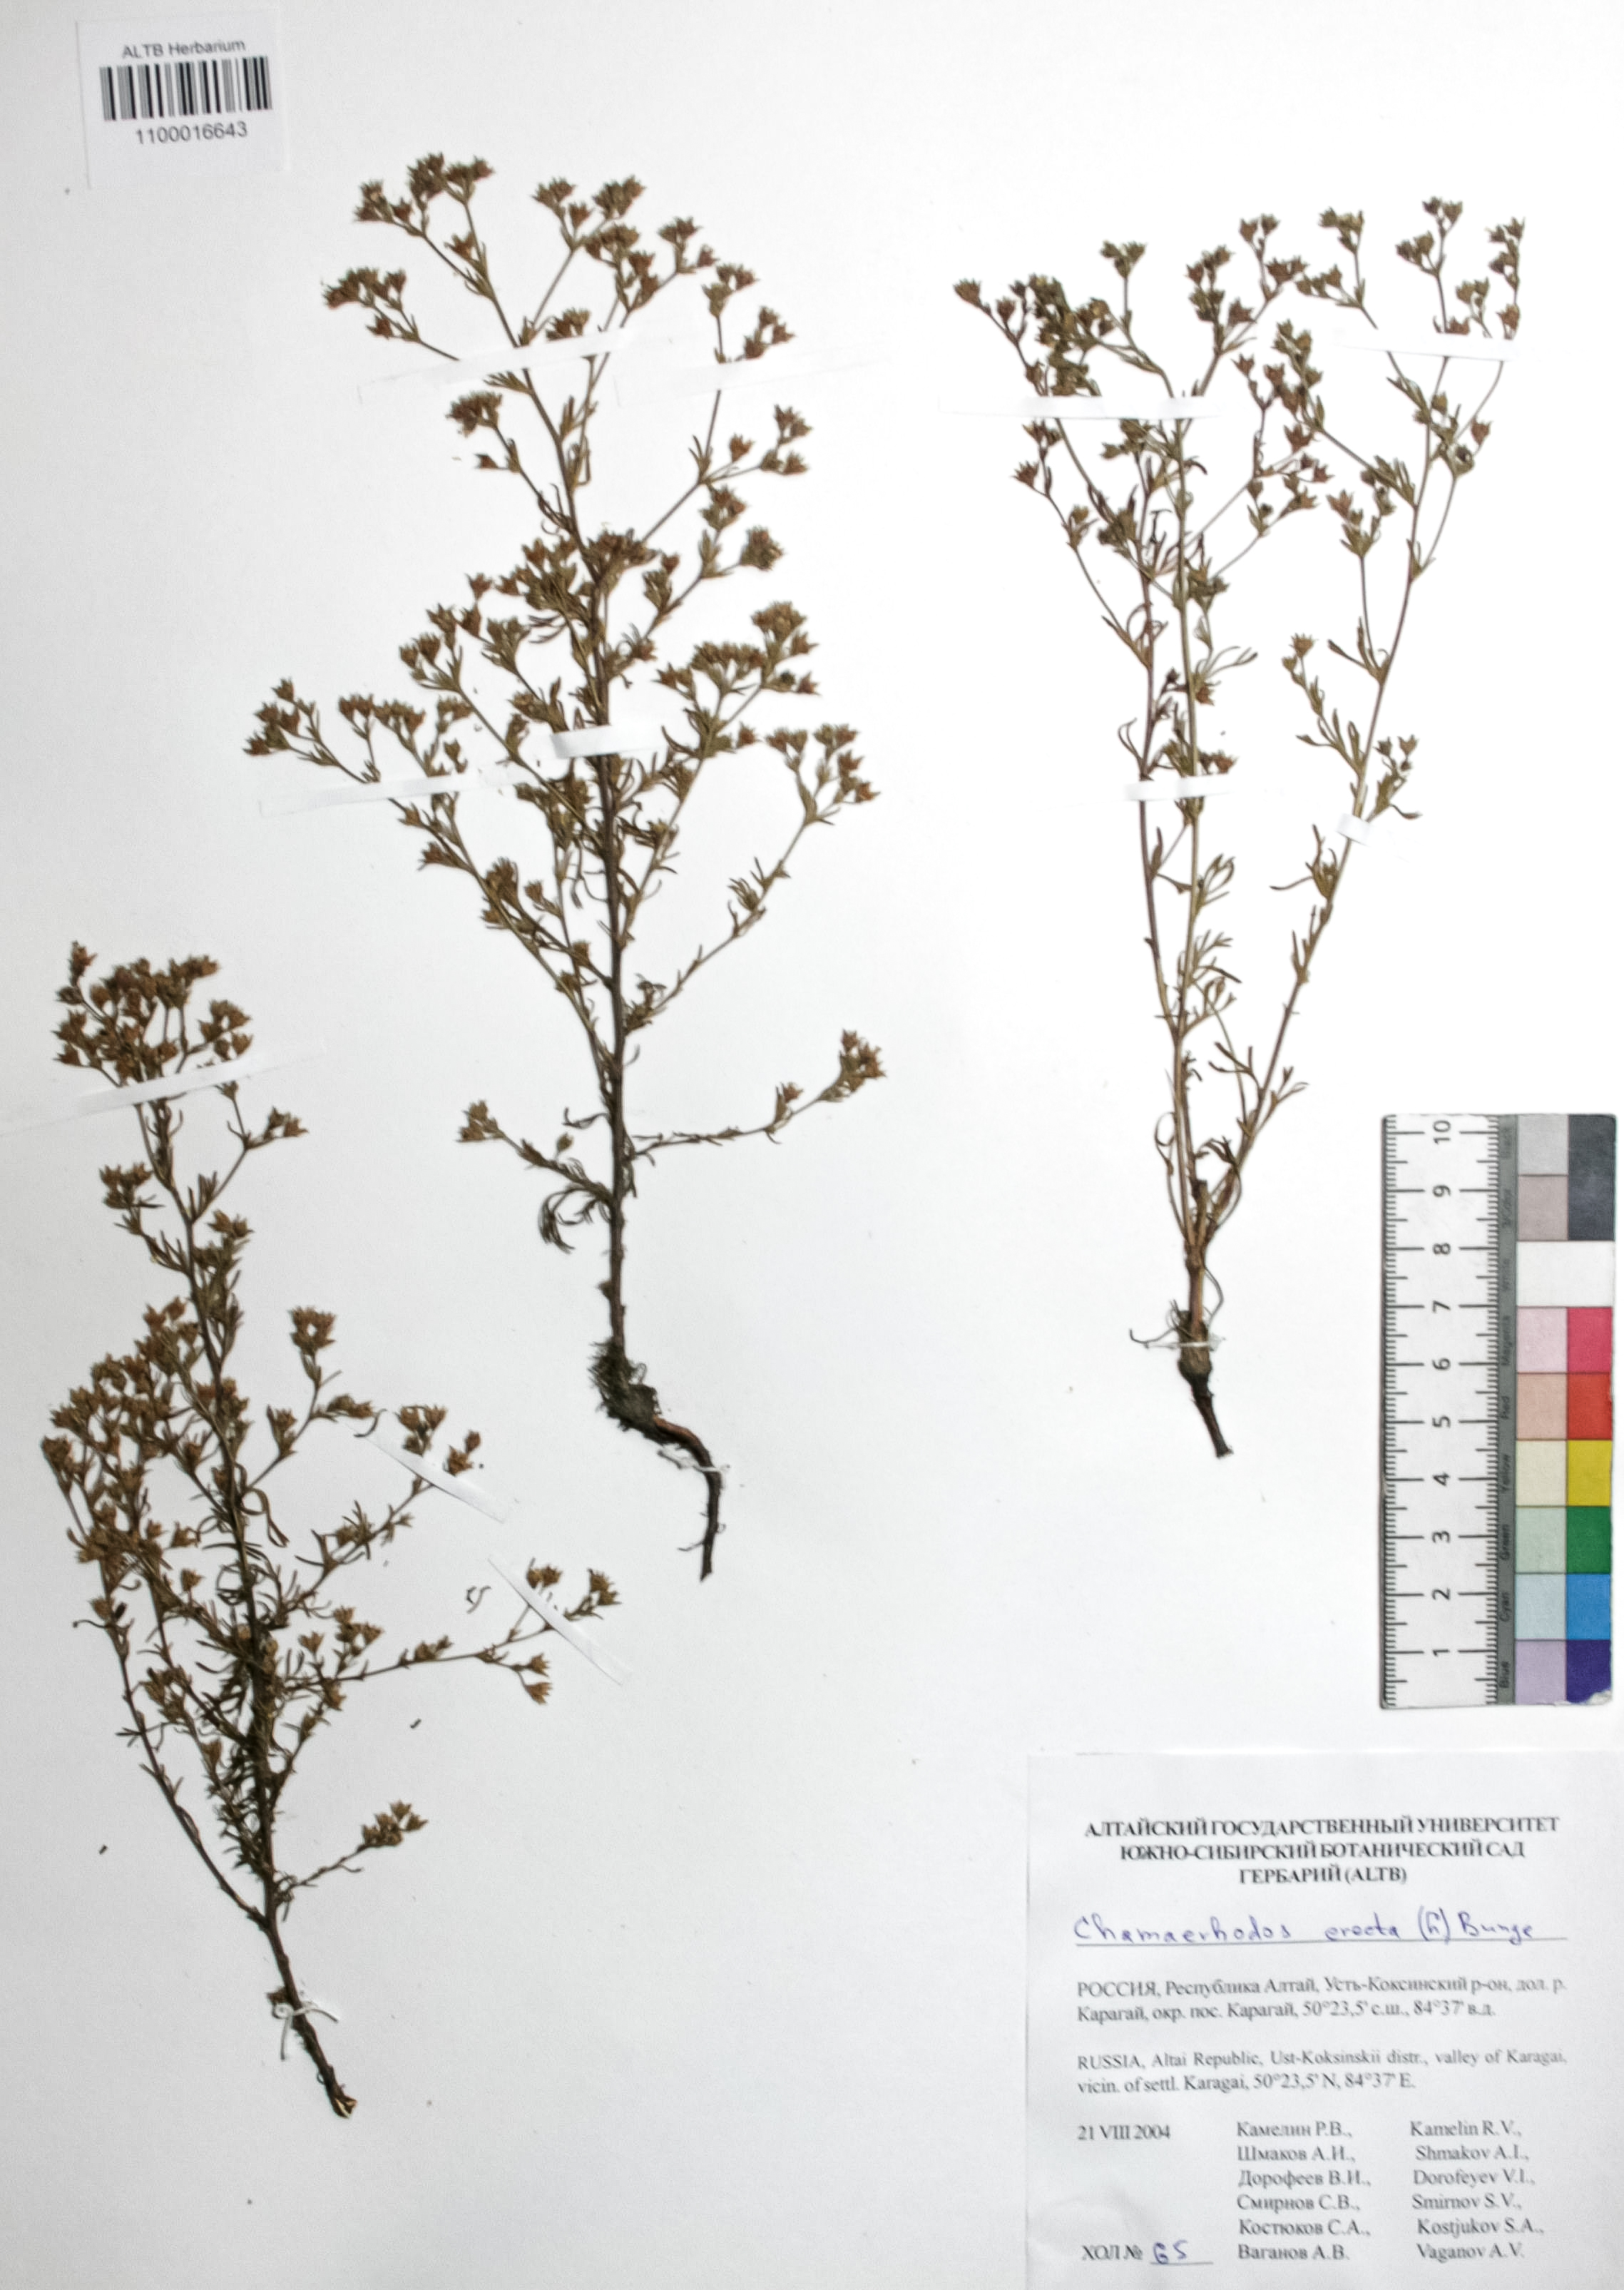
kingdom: Plantae
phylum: Tracheophyta
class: Magnoliopsida
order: Rosales
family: Rosaceae
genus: Chamaerhodos
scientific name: Chamaerhodos erecta
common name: American chamaerhodos
